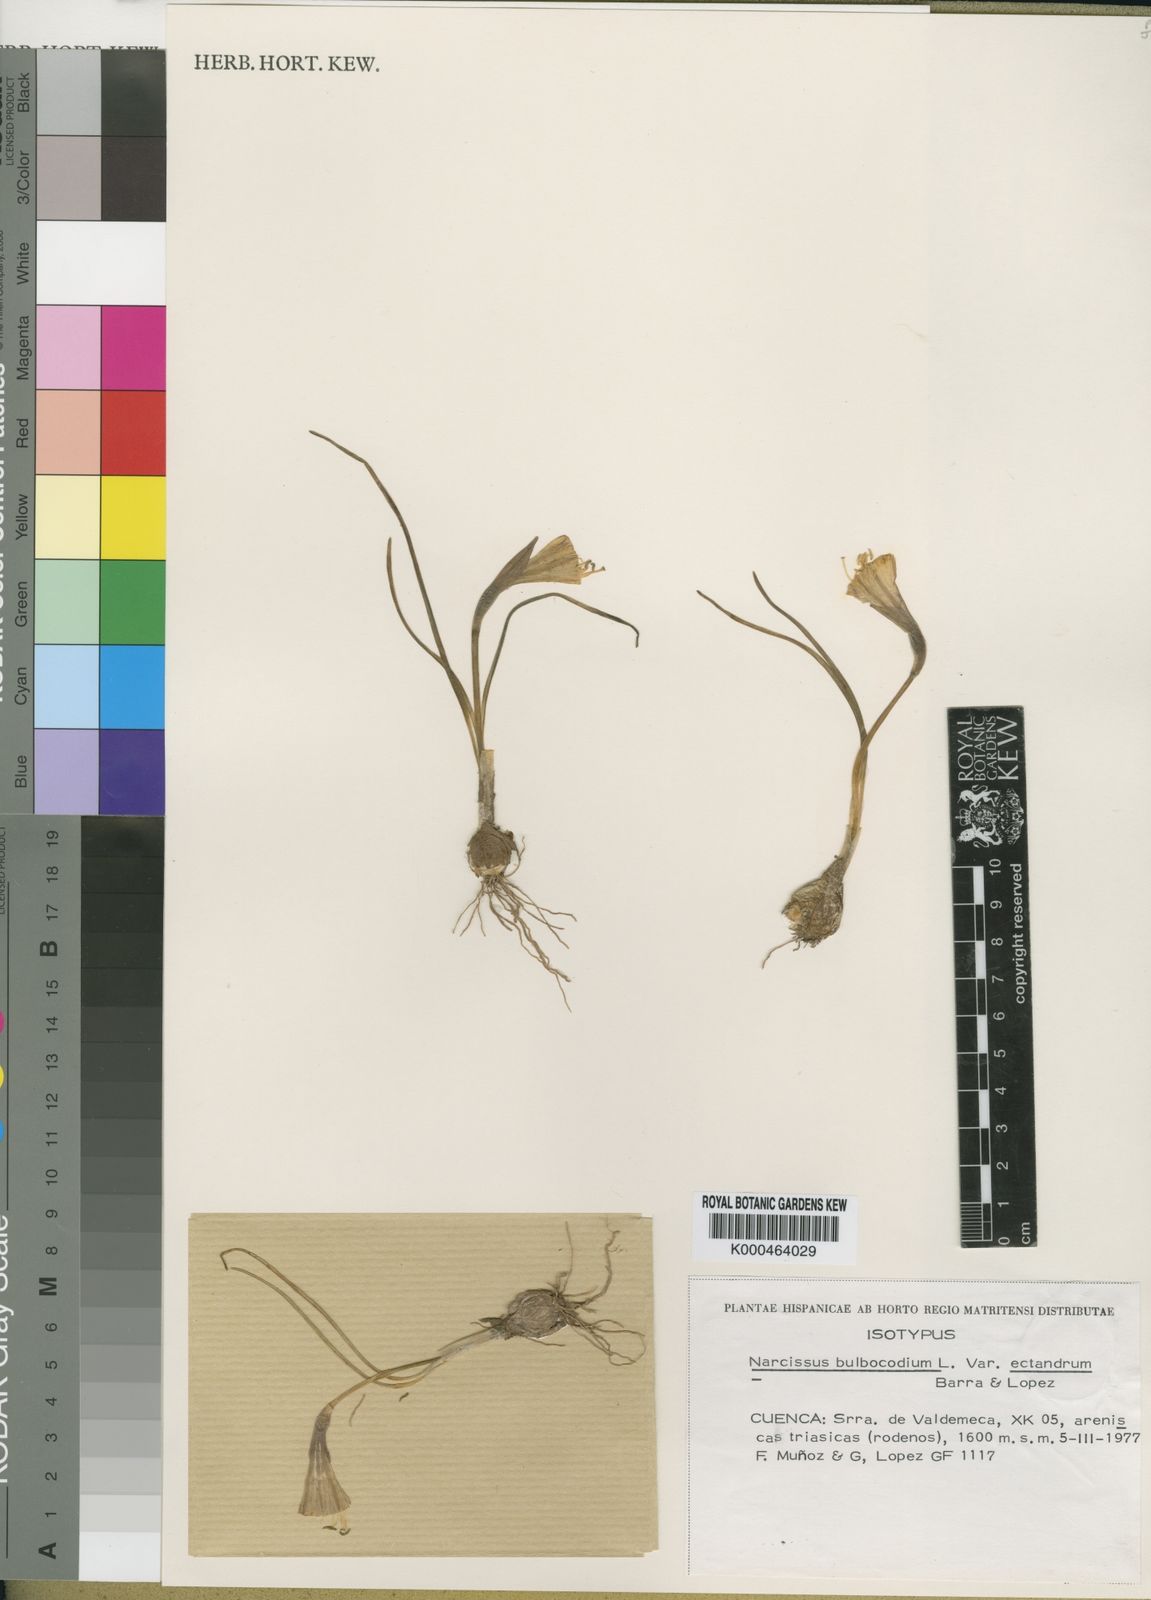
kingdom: Plantae
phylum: Tracheophyta
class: Liliopsida
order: Asparagales
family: Amaryllidaceae
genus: Narcissus
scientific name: Narcissus bulbocodium
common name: Hoop-petticoat daffodil
